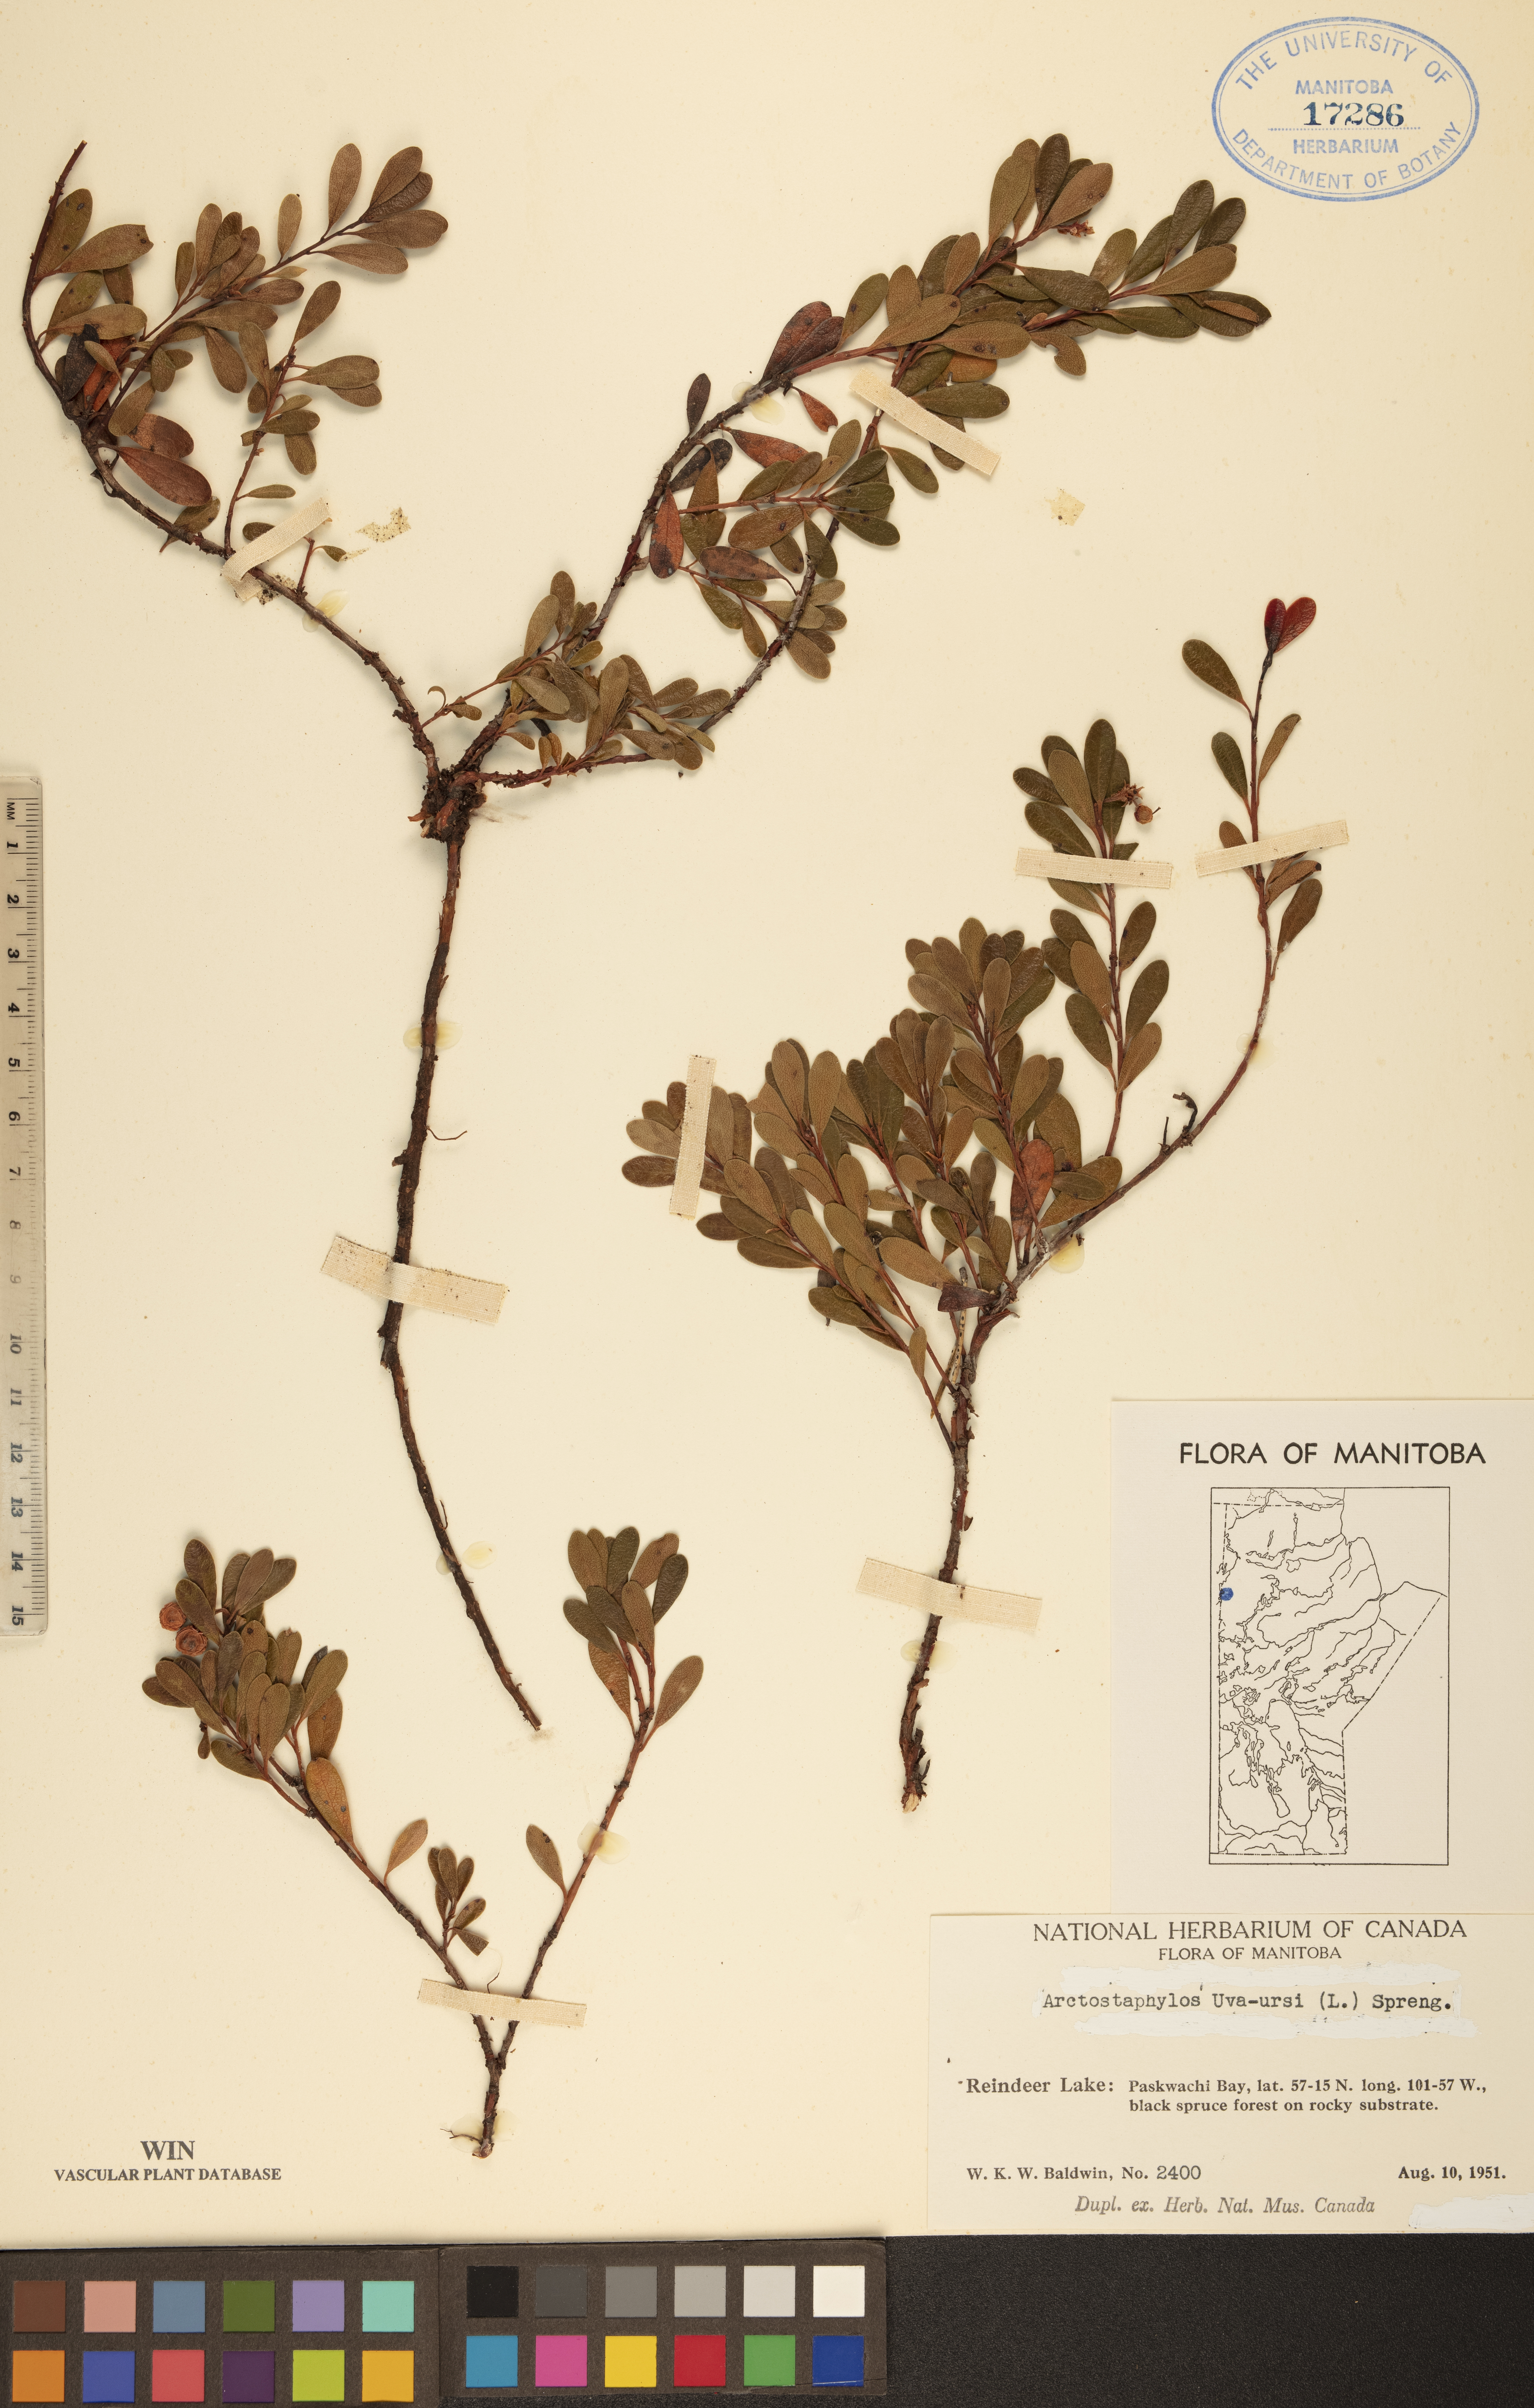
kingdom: Plantae
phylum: Tracheophyta
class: Magnoliopsida
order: Ericales
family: Ericaceae
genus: Arctostaphylos
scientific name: Arctostaphylos uva-ursi
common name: Bearberry
